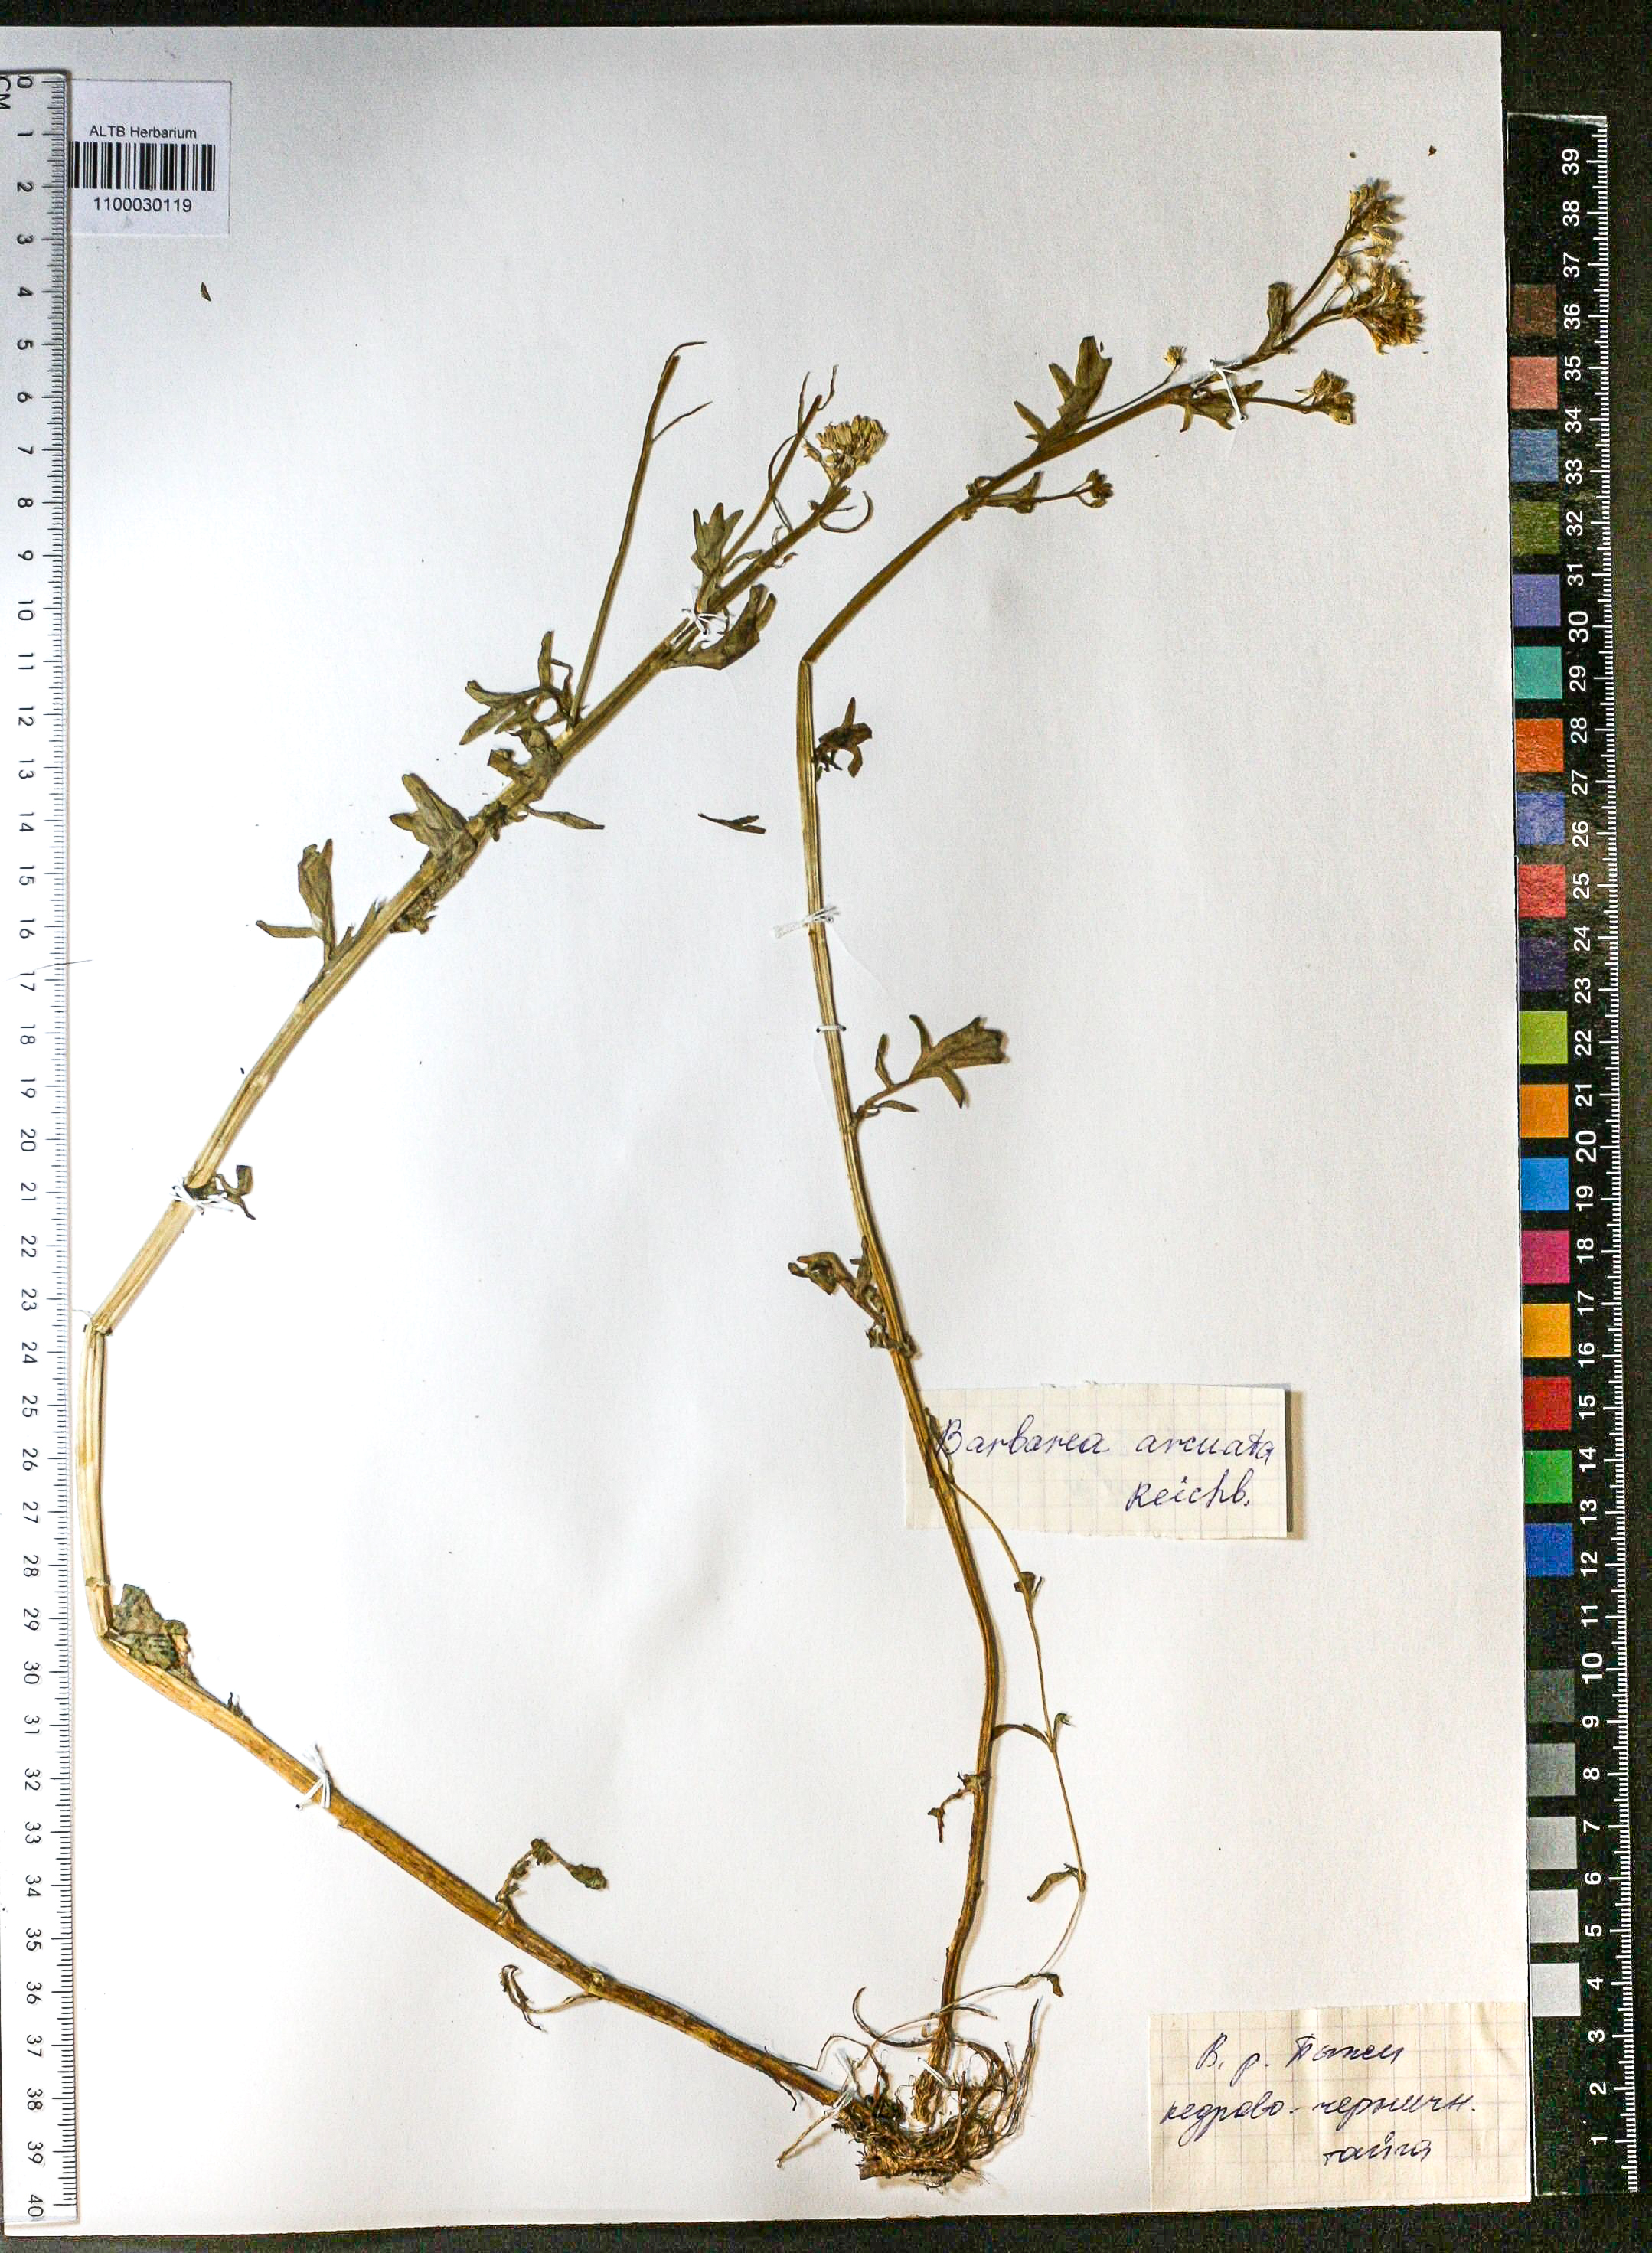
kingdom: Plantae
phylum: Tracheophyta
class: Magnoliopsida
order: Brassicales
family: Brassicaceae
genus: Barbarea
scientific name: Barbarea vulgaris
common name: Cressy-greens
